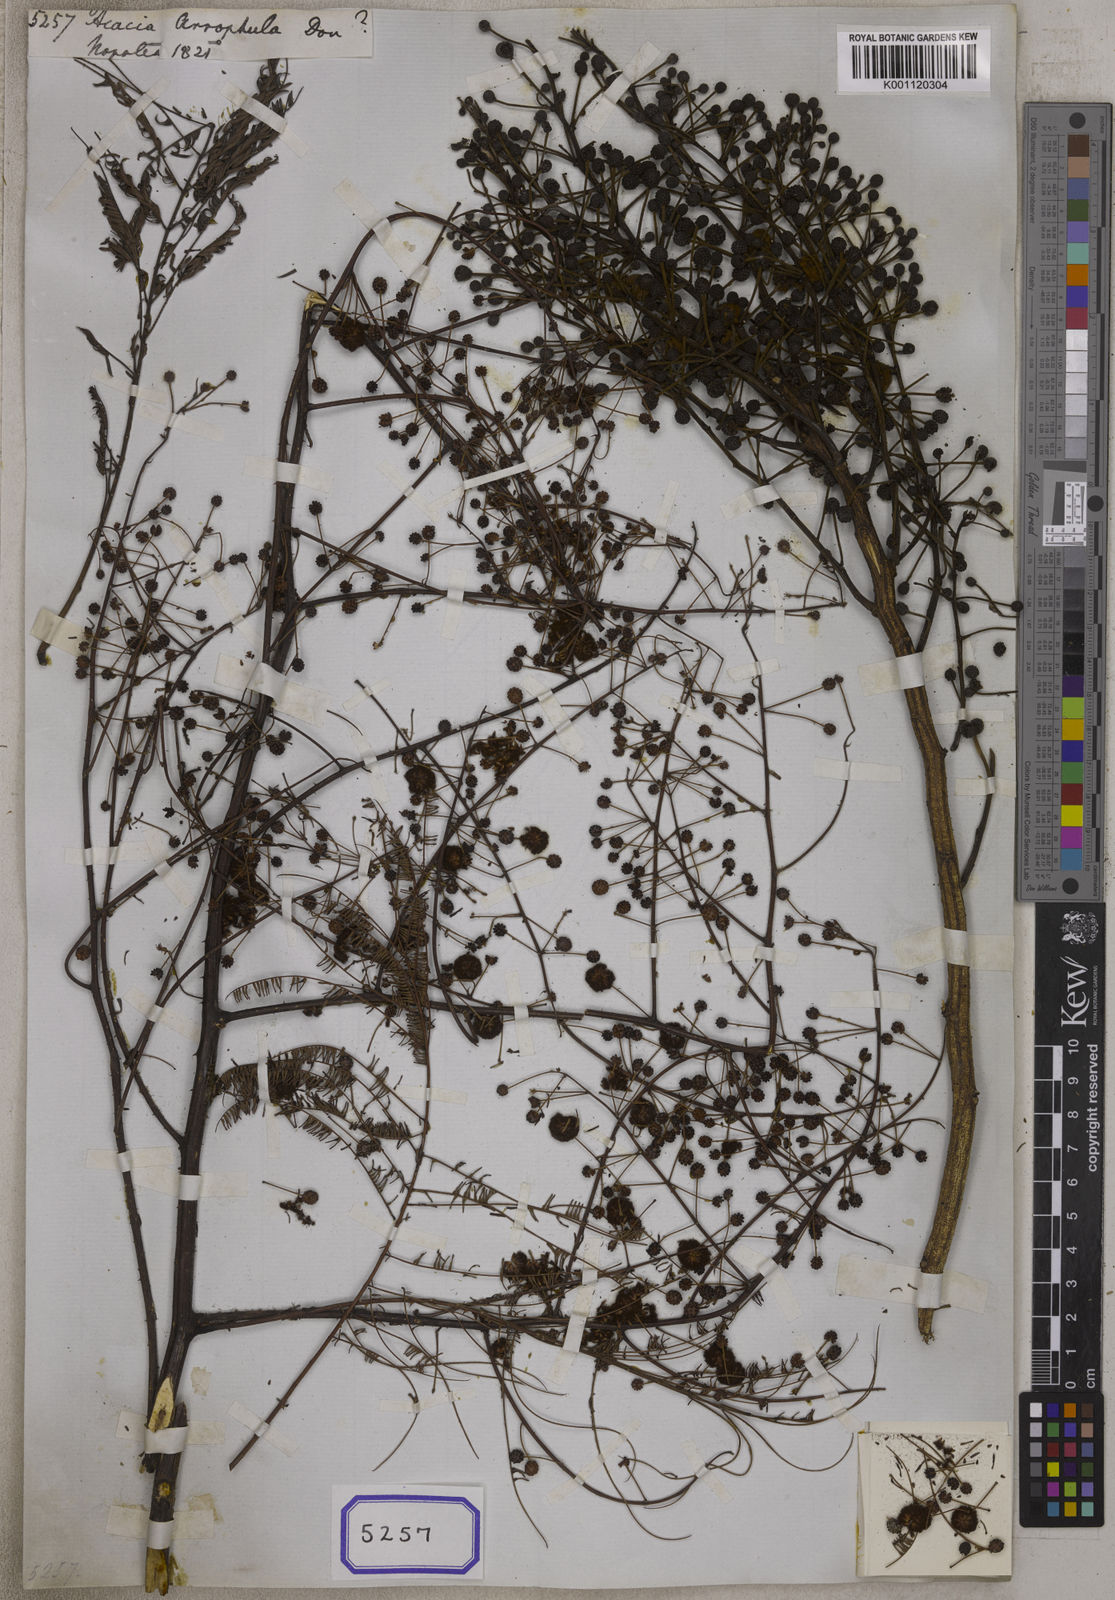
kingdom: Plantae
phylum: Tracheophyta
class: Magnoliopsida
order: Fabales
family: Fabaceae
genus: Senegalia
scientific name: Senegalia megaladena
